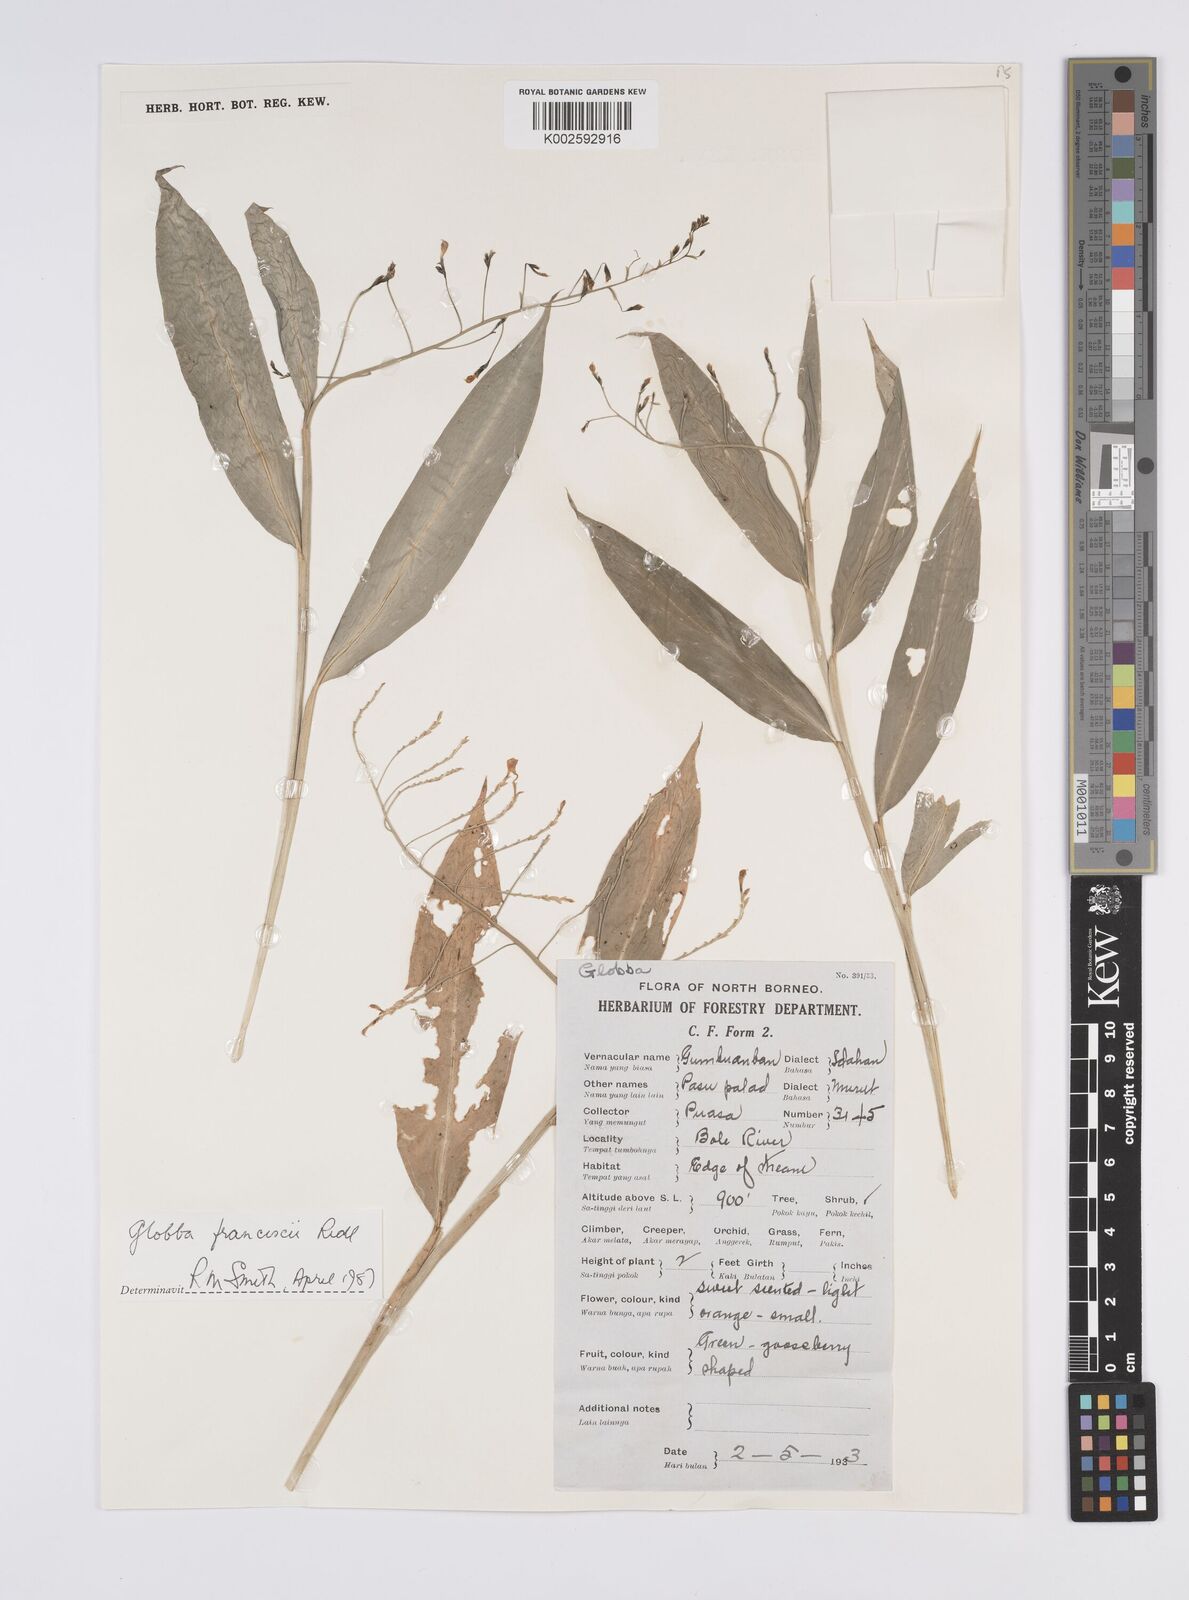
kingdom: Plantae
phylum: Tracheophyta
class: Liliopsida
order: Zingiberales
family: Zingiberaceae
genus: Globba
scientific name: Globba francisci
